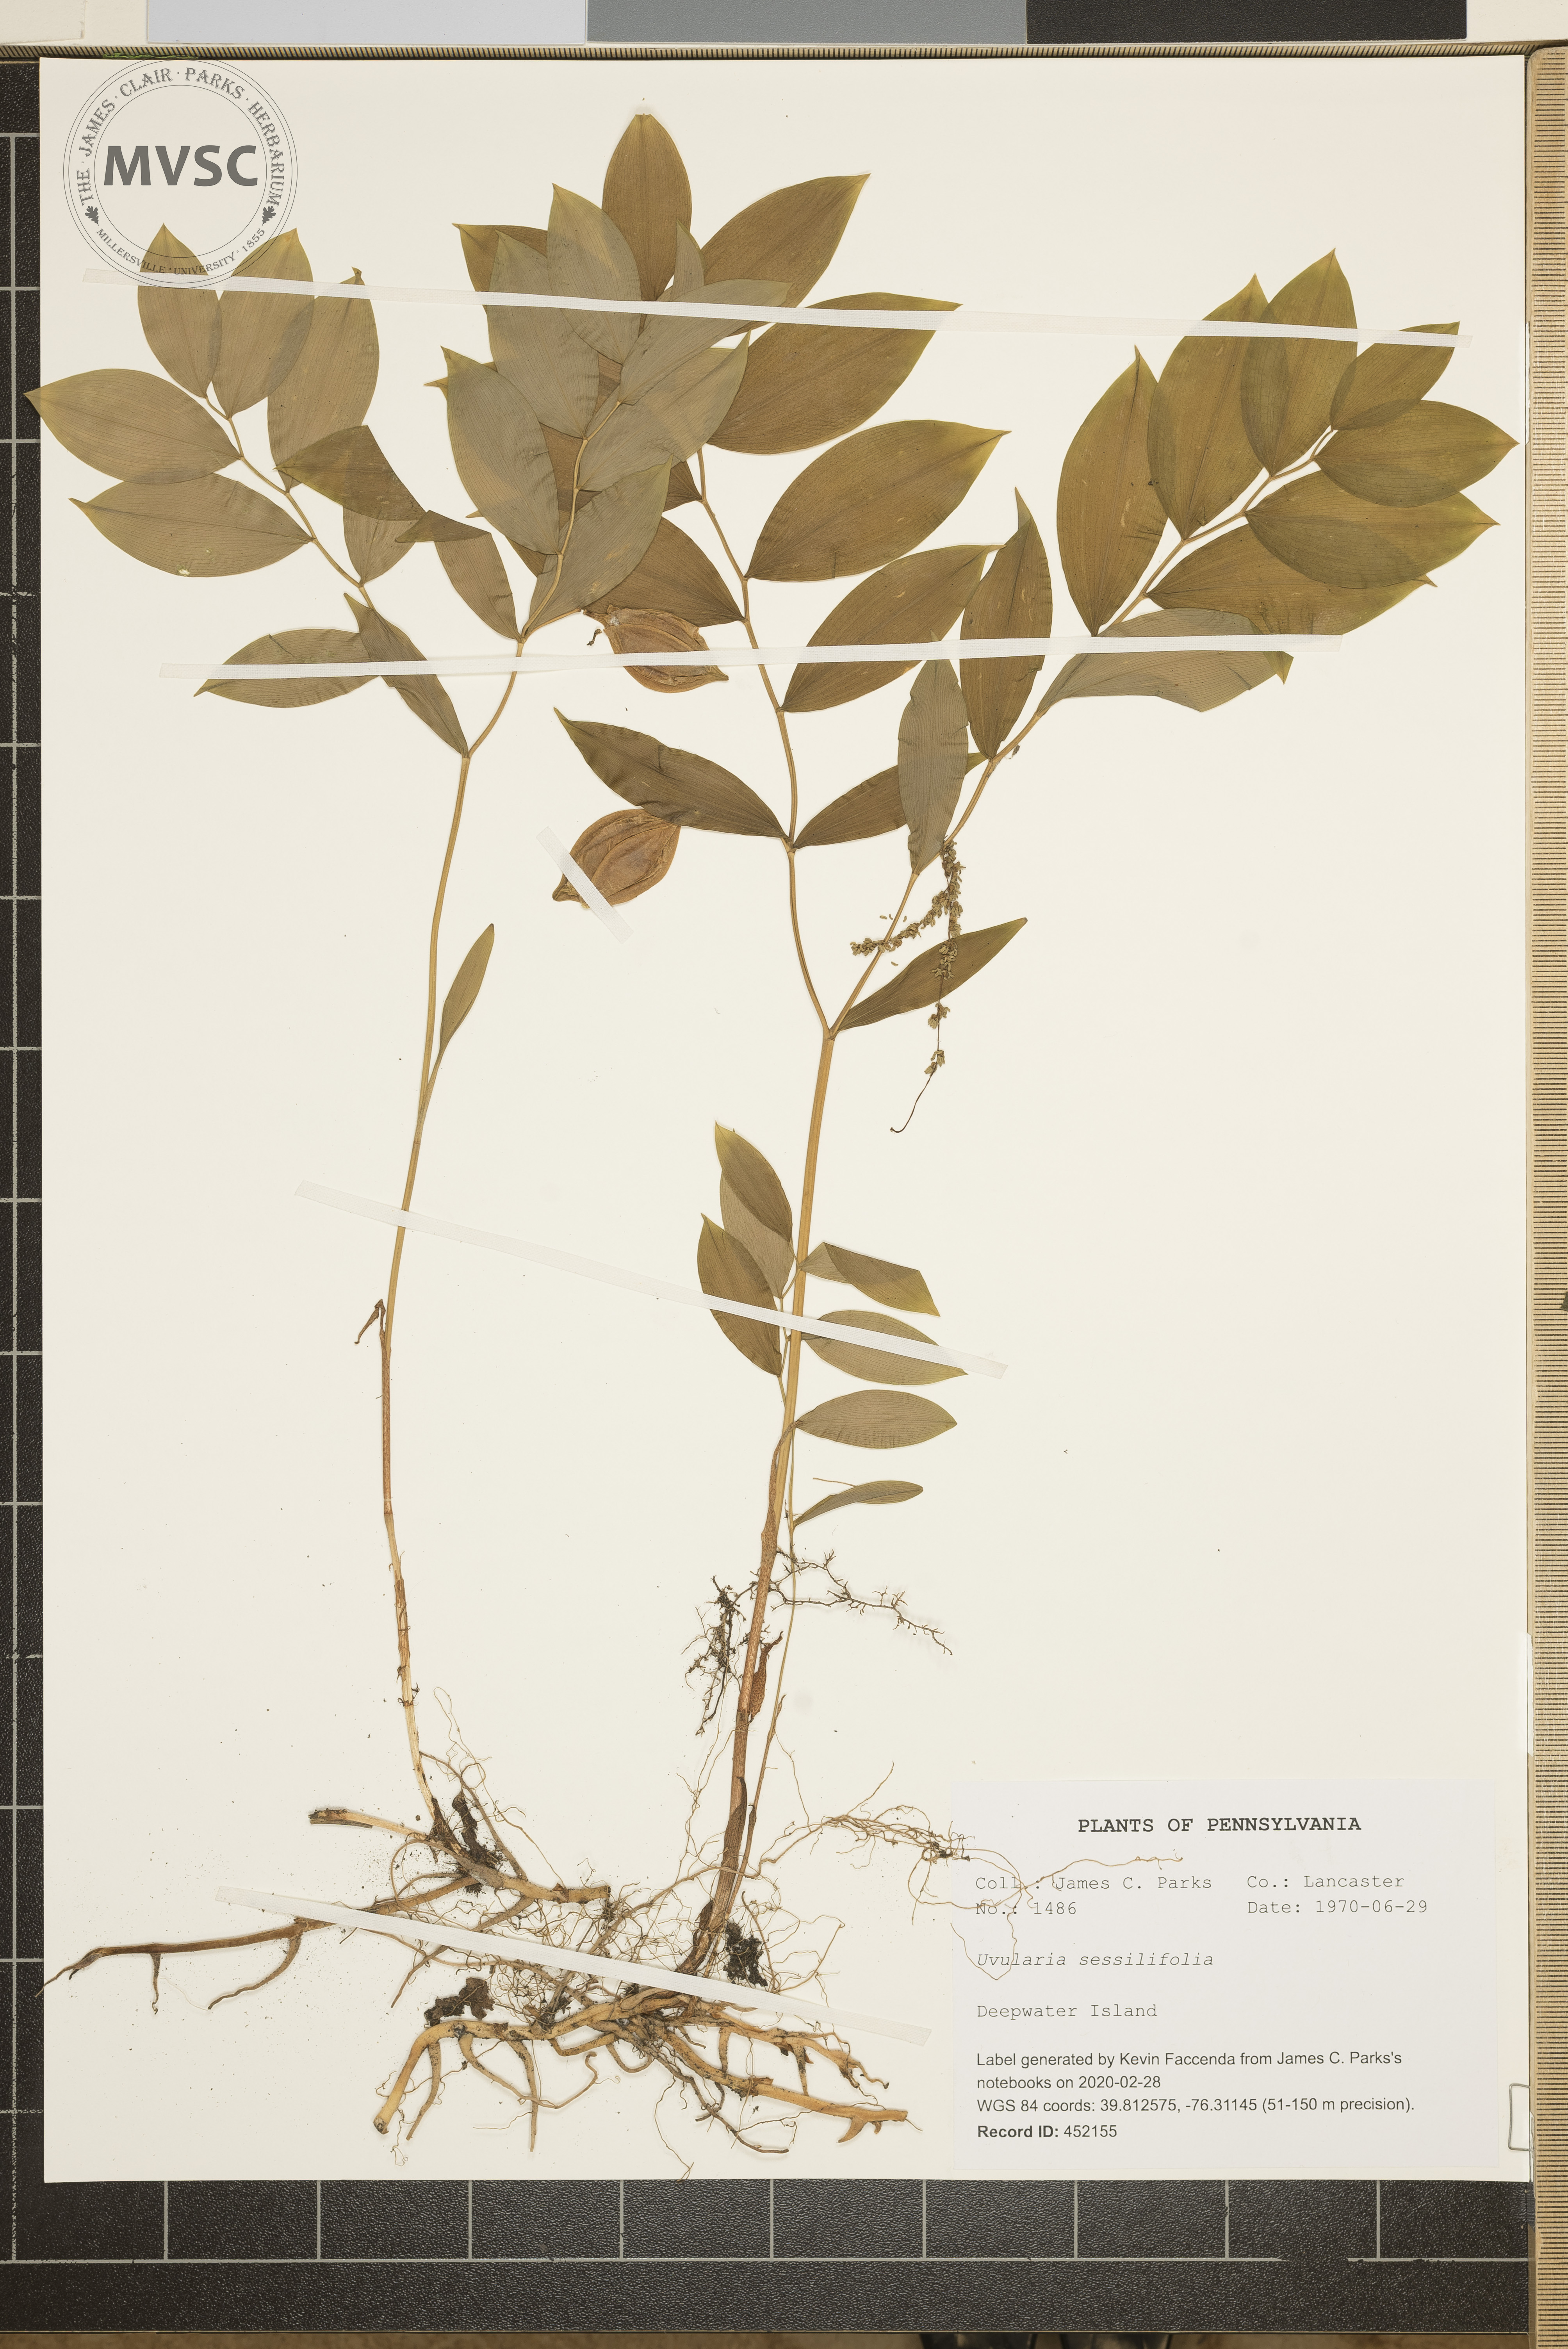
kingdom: Plantae
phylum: Tracheophyta
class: Liliopsida
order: Liliales
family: Colchicaceae
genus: Uvularia
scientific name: Uvularia sessilifolia
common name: Straw-lily
